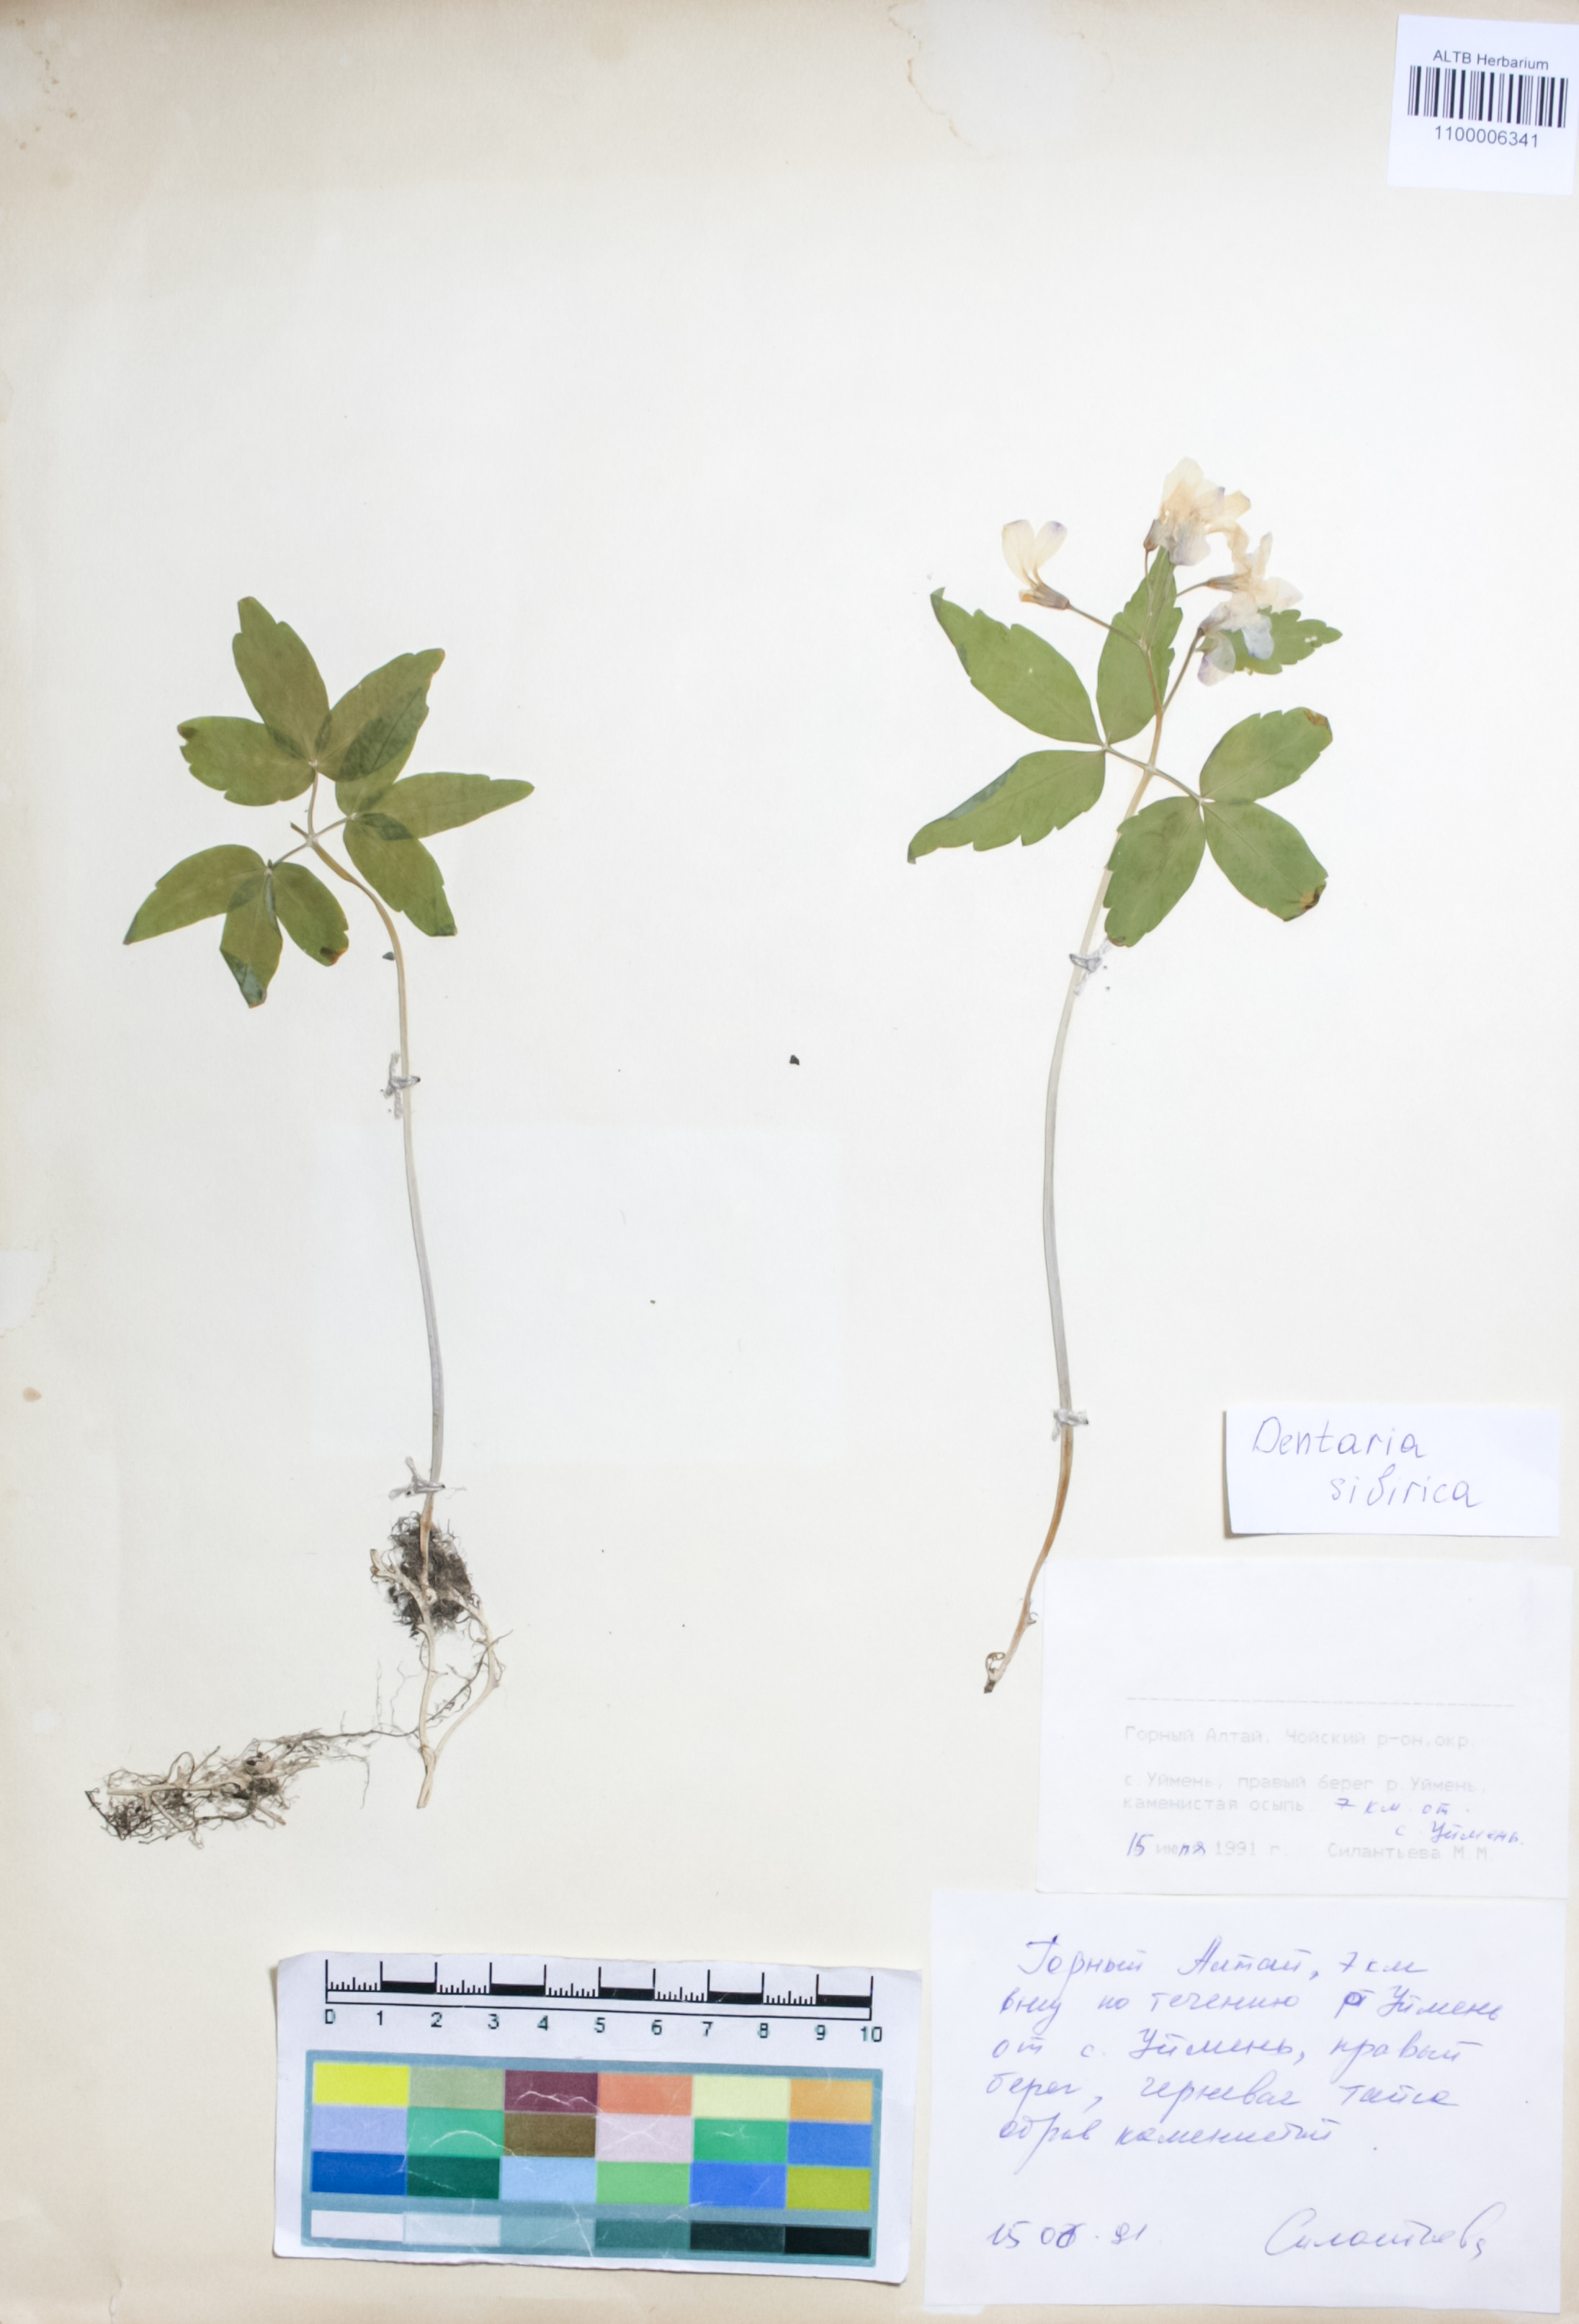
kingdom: Plantae
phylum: Tracheophyta
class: Magnoliopsida
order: Brassicales
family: Brassicaceae
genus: Cardamine
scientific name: Cardamine glanduligera
